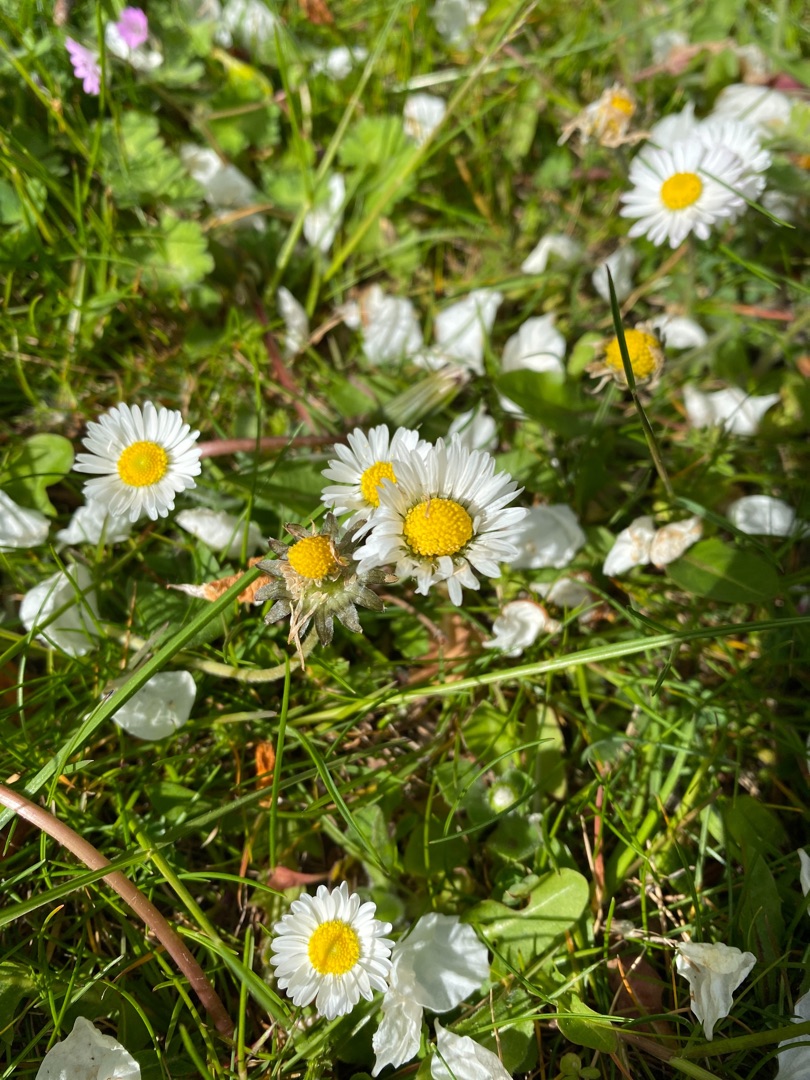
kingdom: Plantae
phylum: Tracheophyta
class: Magnoliopsida
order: Asterales
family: Asteraceae
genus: Bellis
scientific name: Bellis perennis
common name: Tusindfryd
